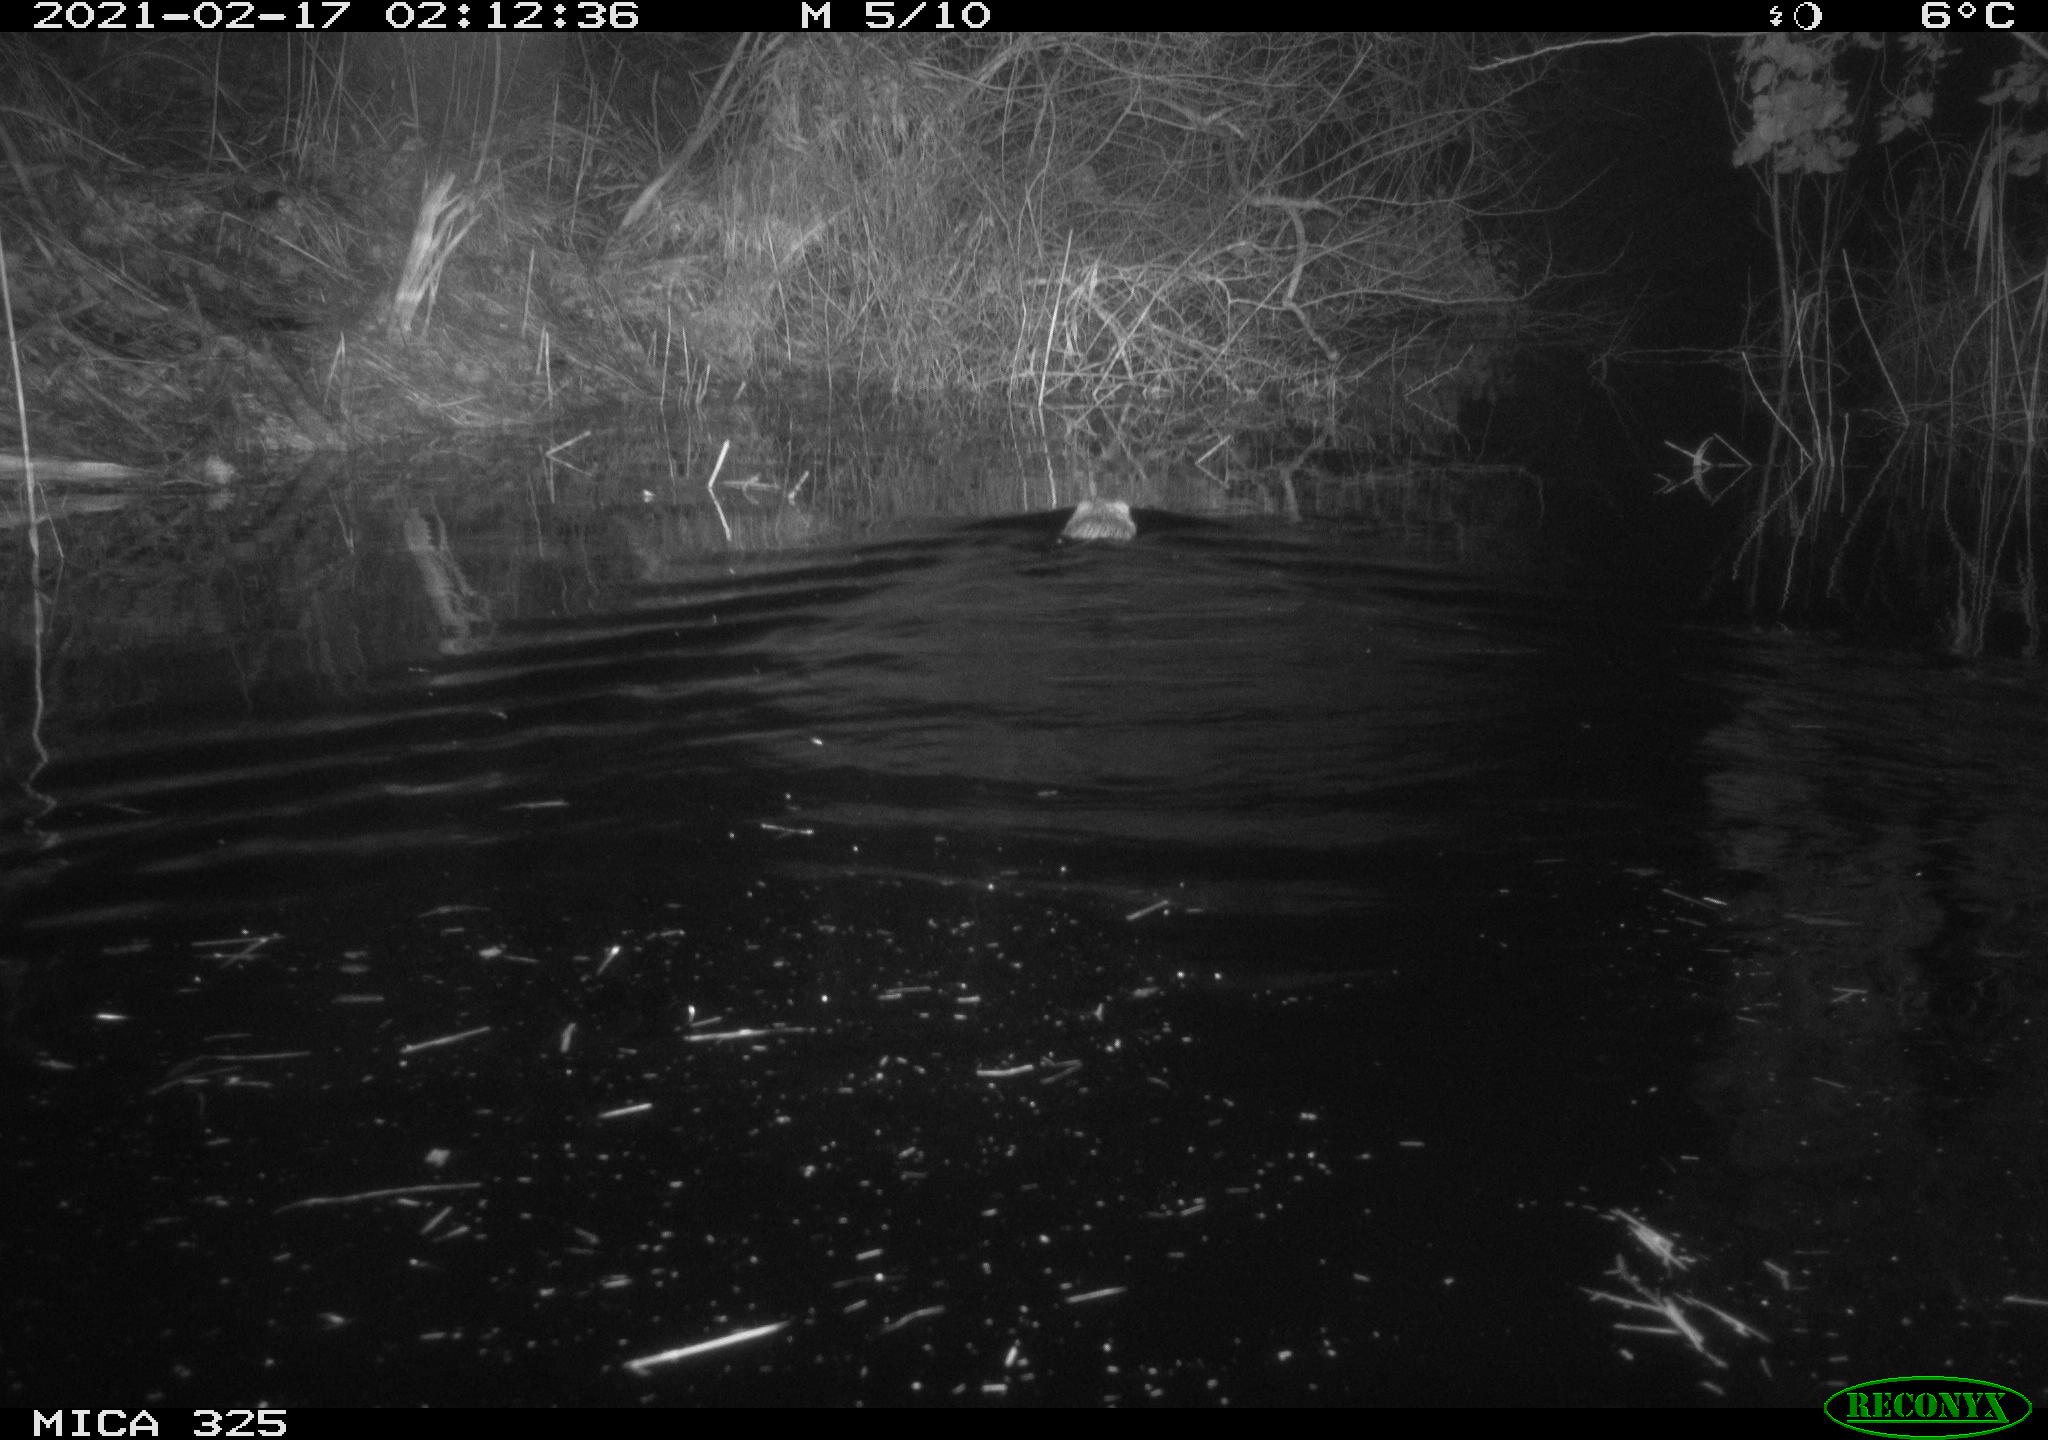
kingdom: Animalia
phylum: Chordata
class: Mammalia
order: Rodentia
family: Cricetidae
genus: Ondatra
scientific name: Ondatra zibethicus
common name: Muskrat
